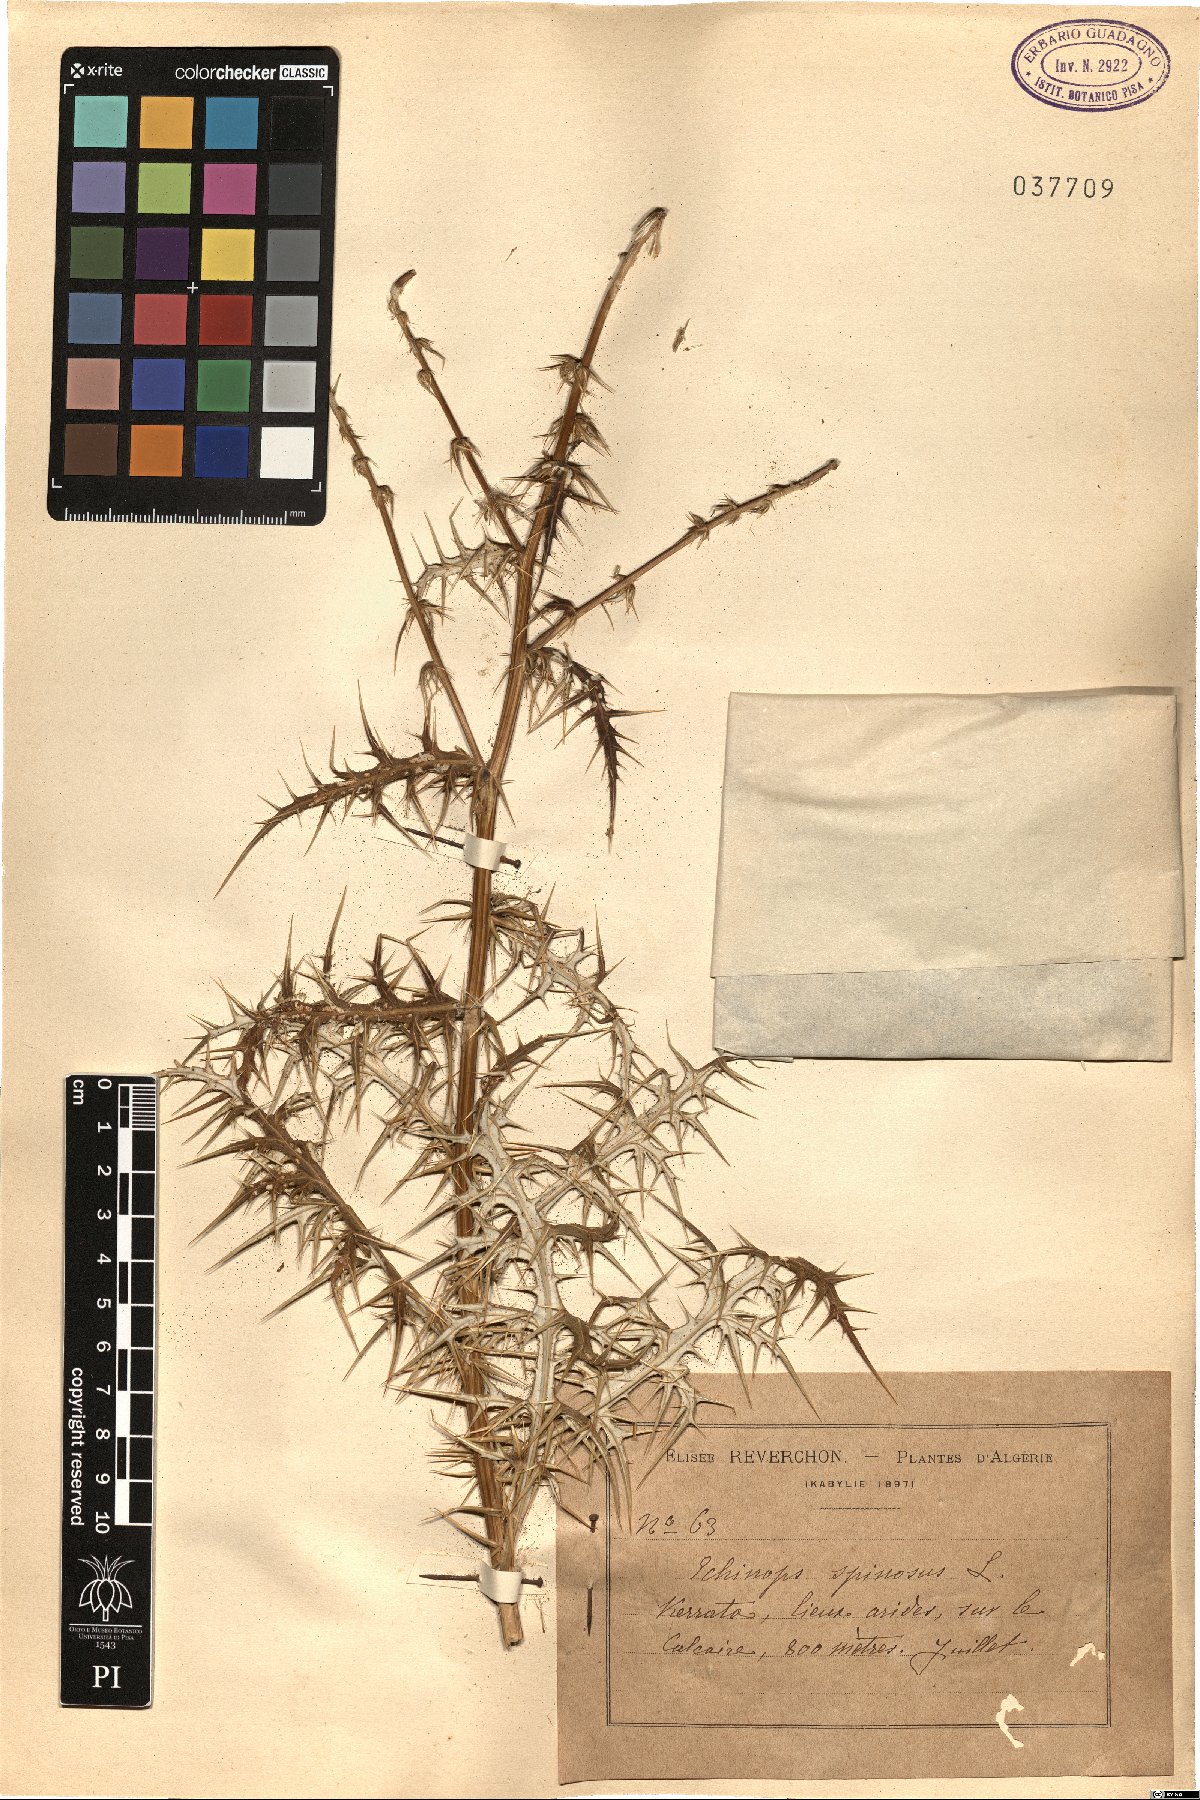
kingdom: Plantae
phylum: Tracheophyta
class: Magnoliopsida
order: Asterales
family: Asteraceae
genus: Echinops
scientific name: Echinops spinosissimus
